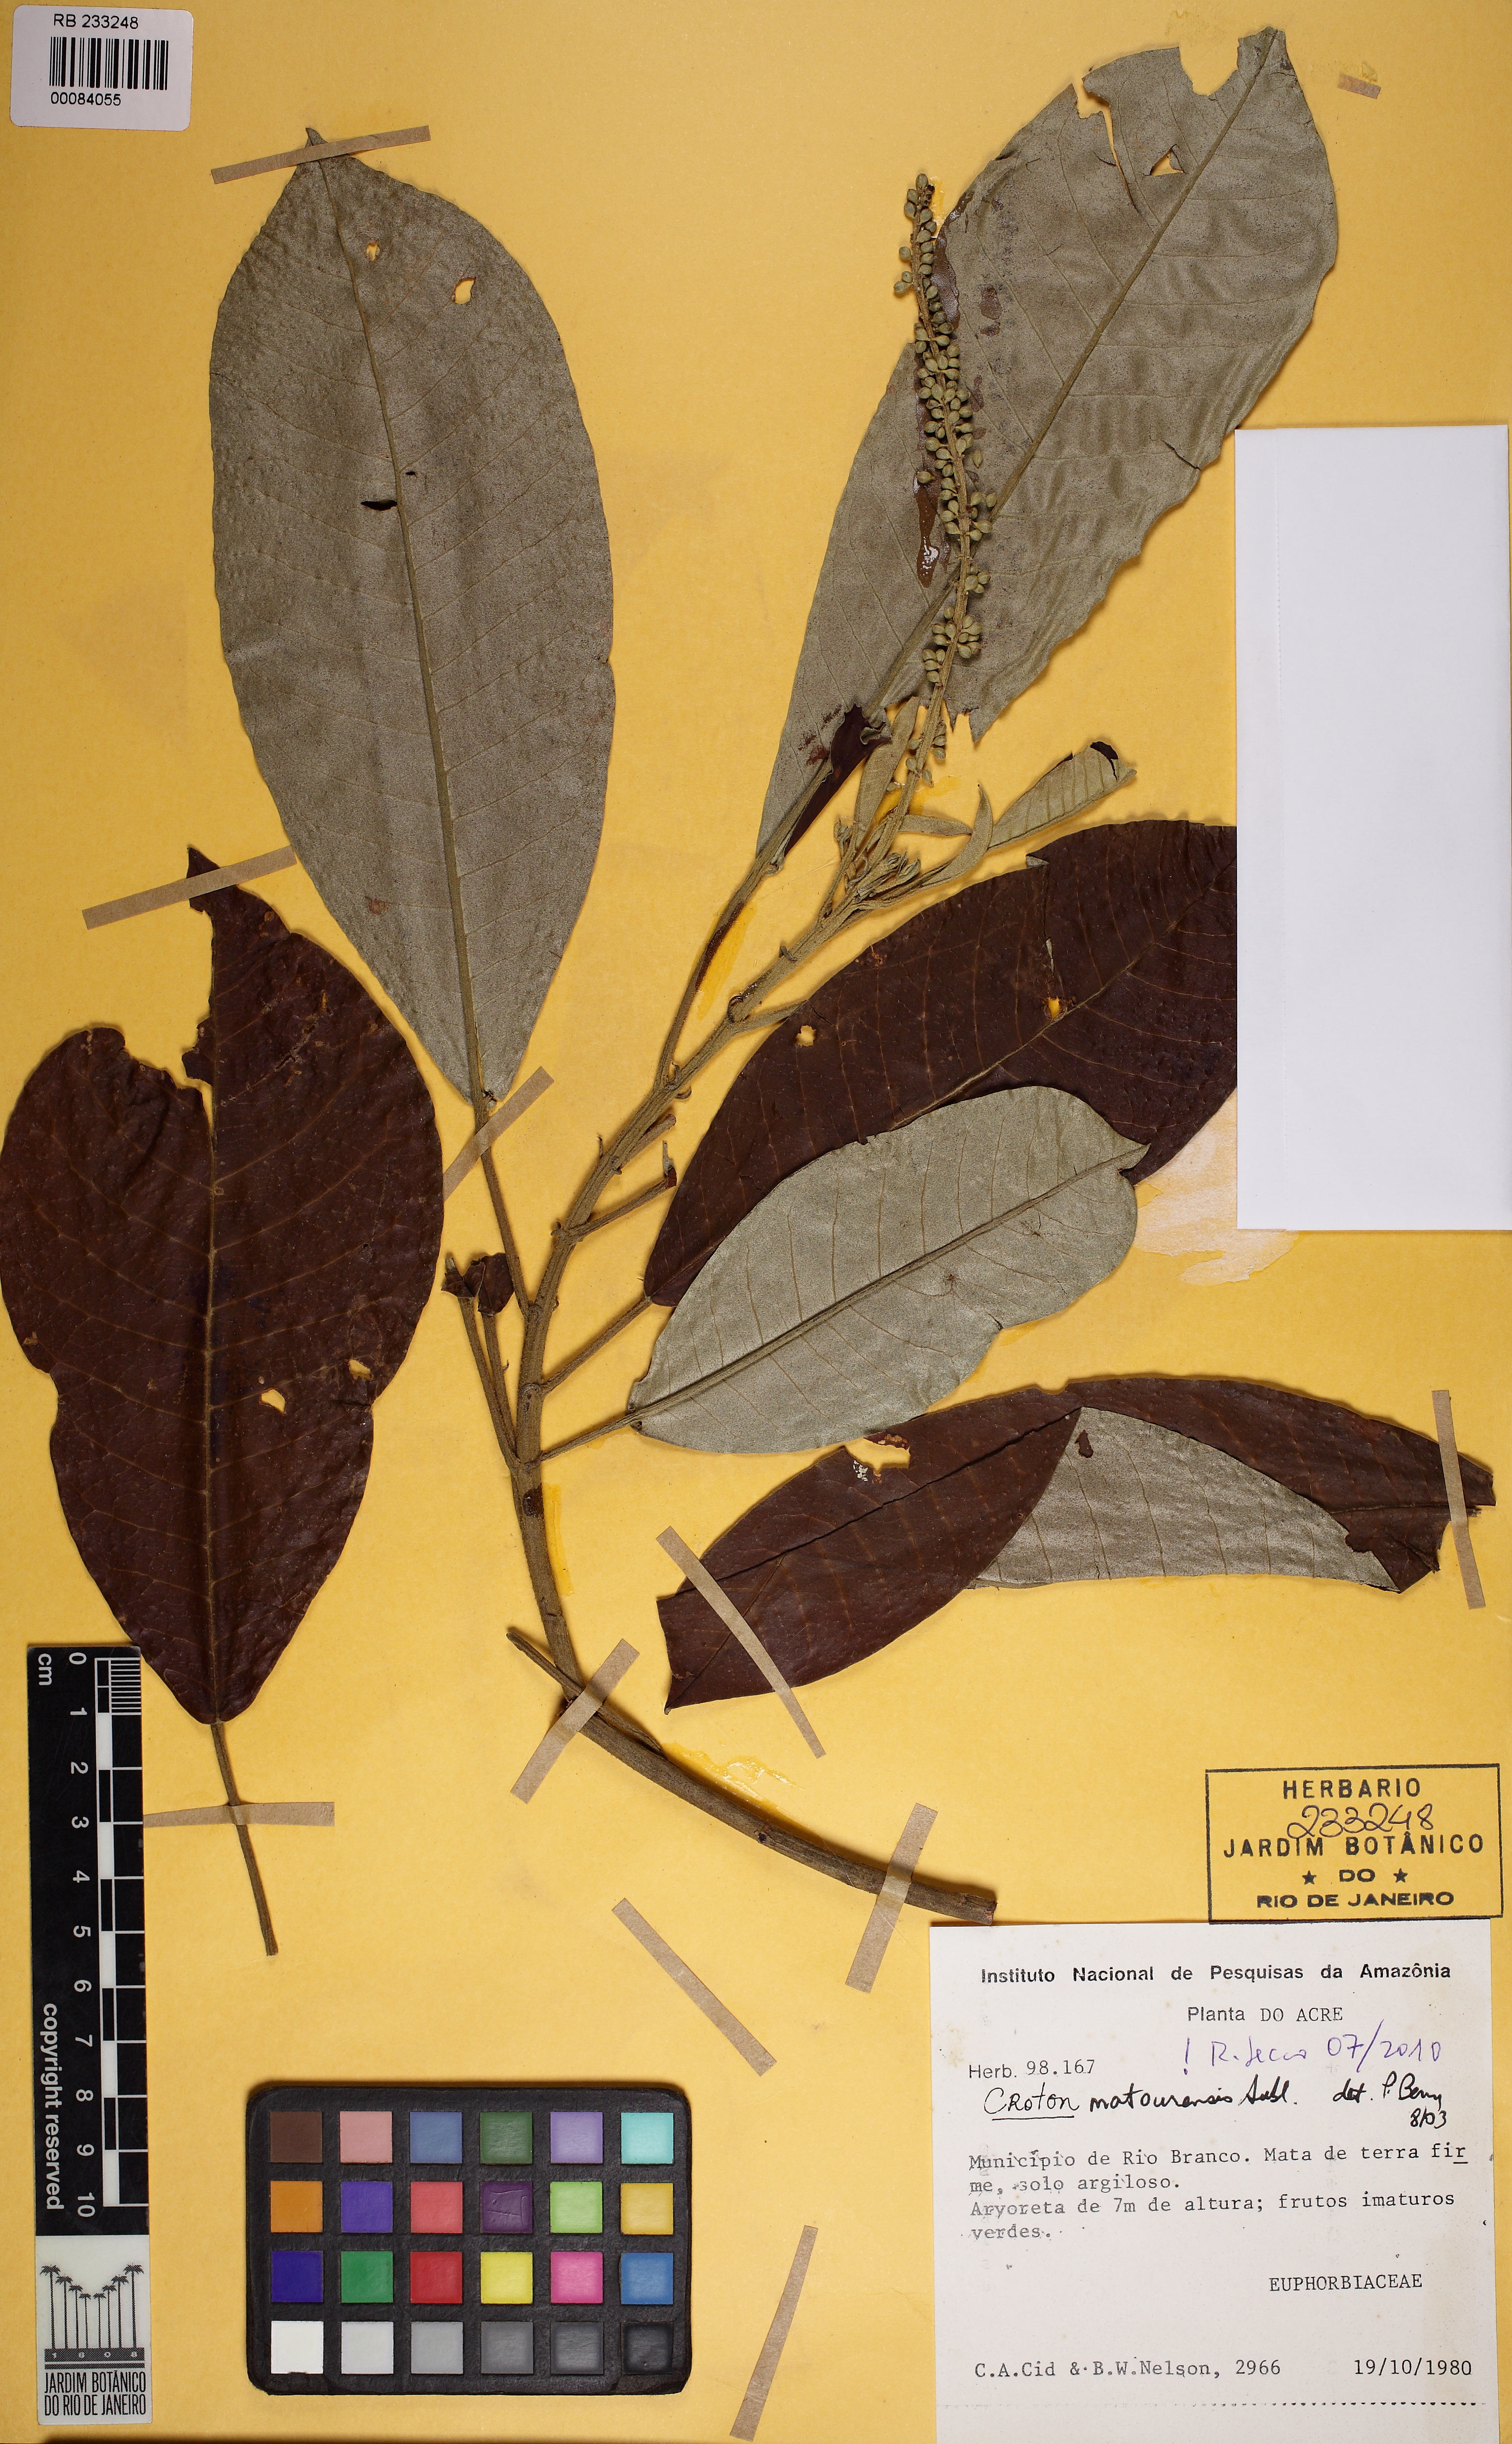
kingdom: Plantae
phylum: Tracheophyta
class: Magnoliopsida
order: Malpighiales
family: Euphorbiaceae
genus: Croton
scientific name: Croton matourensis
